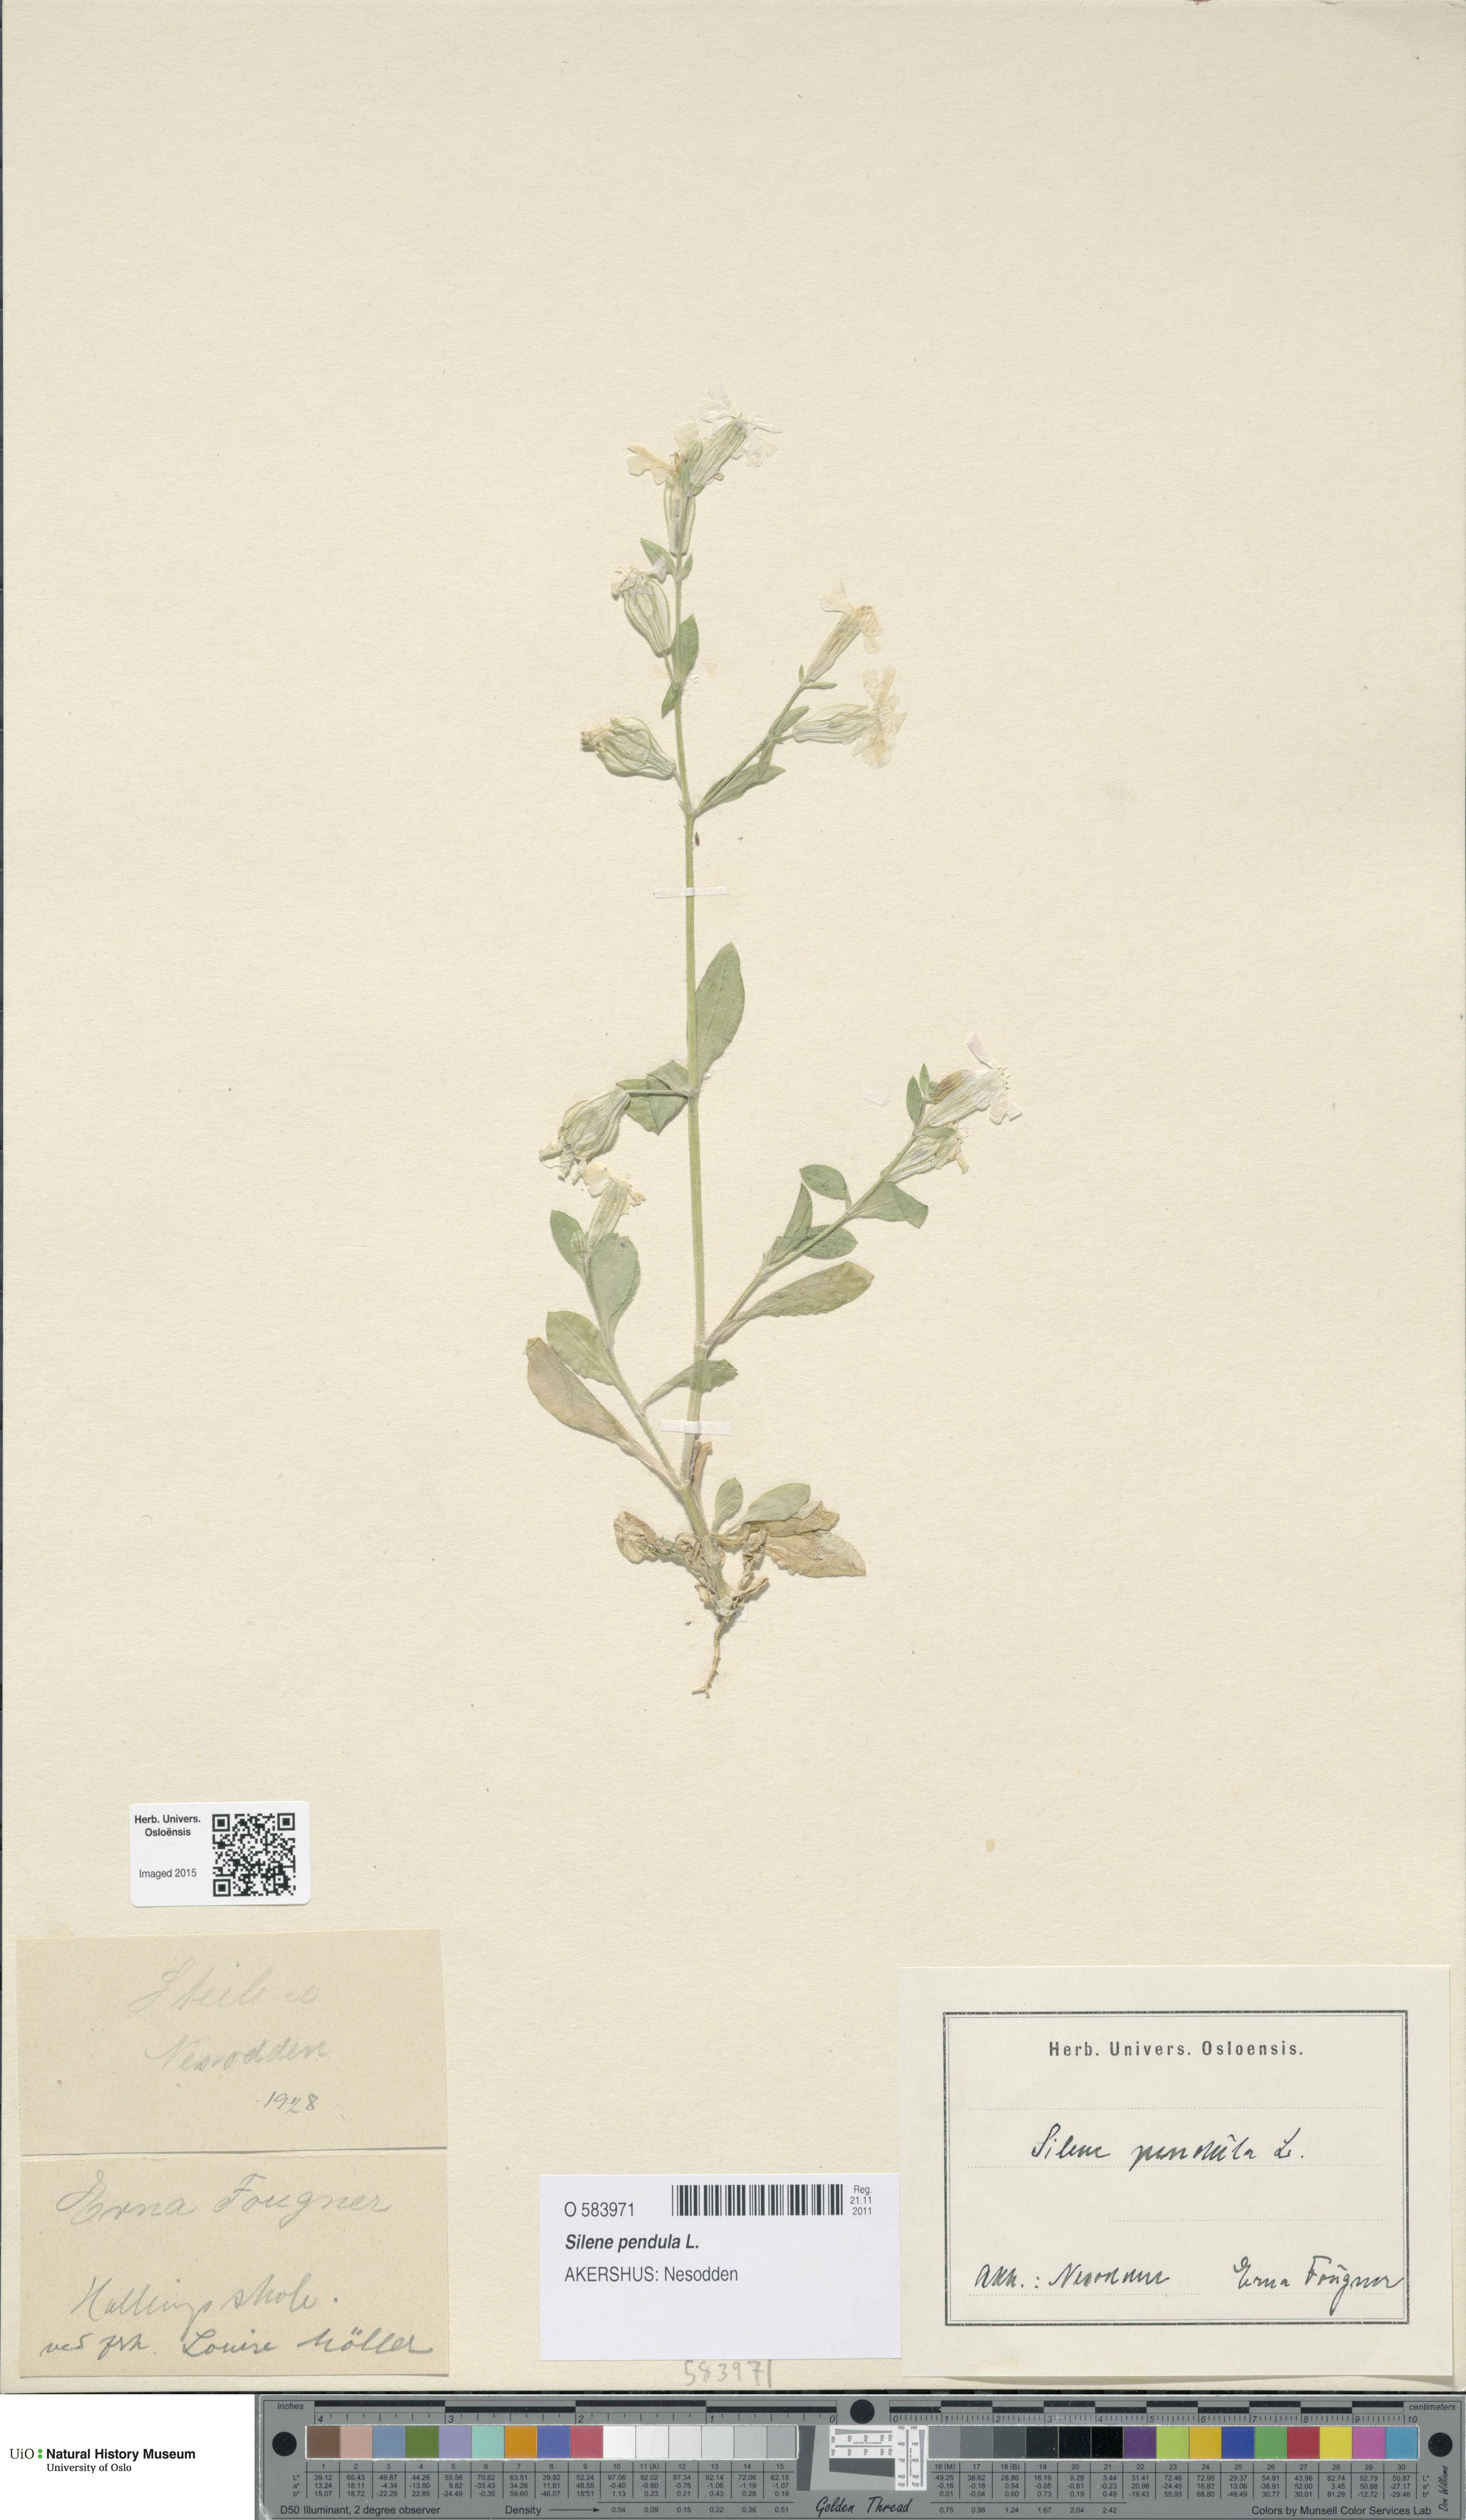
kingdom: Plantae
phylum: Tracheophyta
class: Magnoliopsida
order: Caryophyllales
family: Caryophyllaceae
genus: Silene
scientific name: Silene pendula
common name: Nodding catchfly
